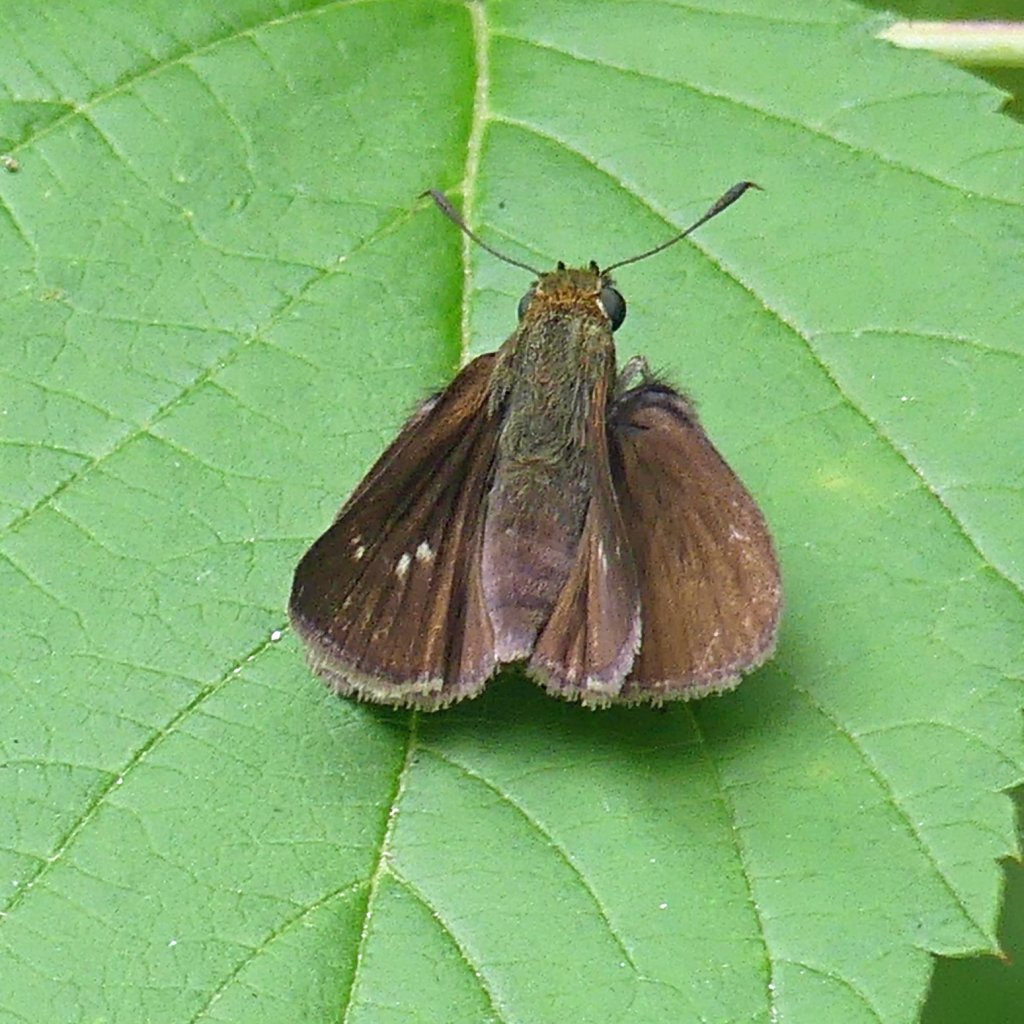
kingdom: Animalia
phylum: Arthropoda
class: Insecta
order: Lepidoptera
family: Hesperiidae
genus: Euphyes
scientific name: Euphyes vestris
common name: Dun Skipper
